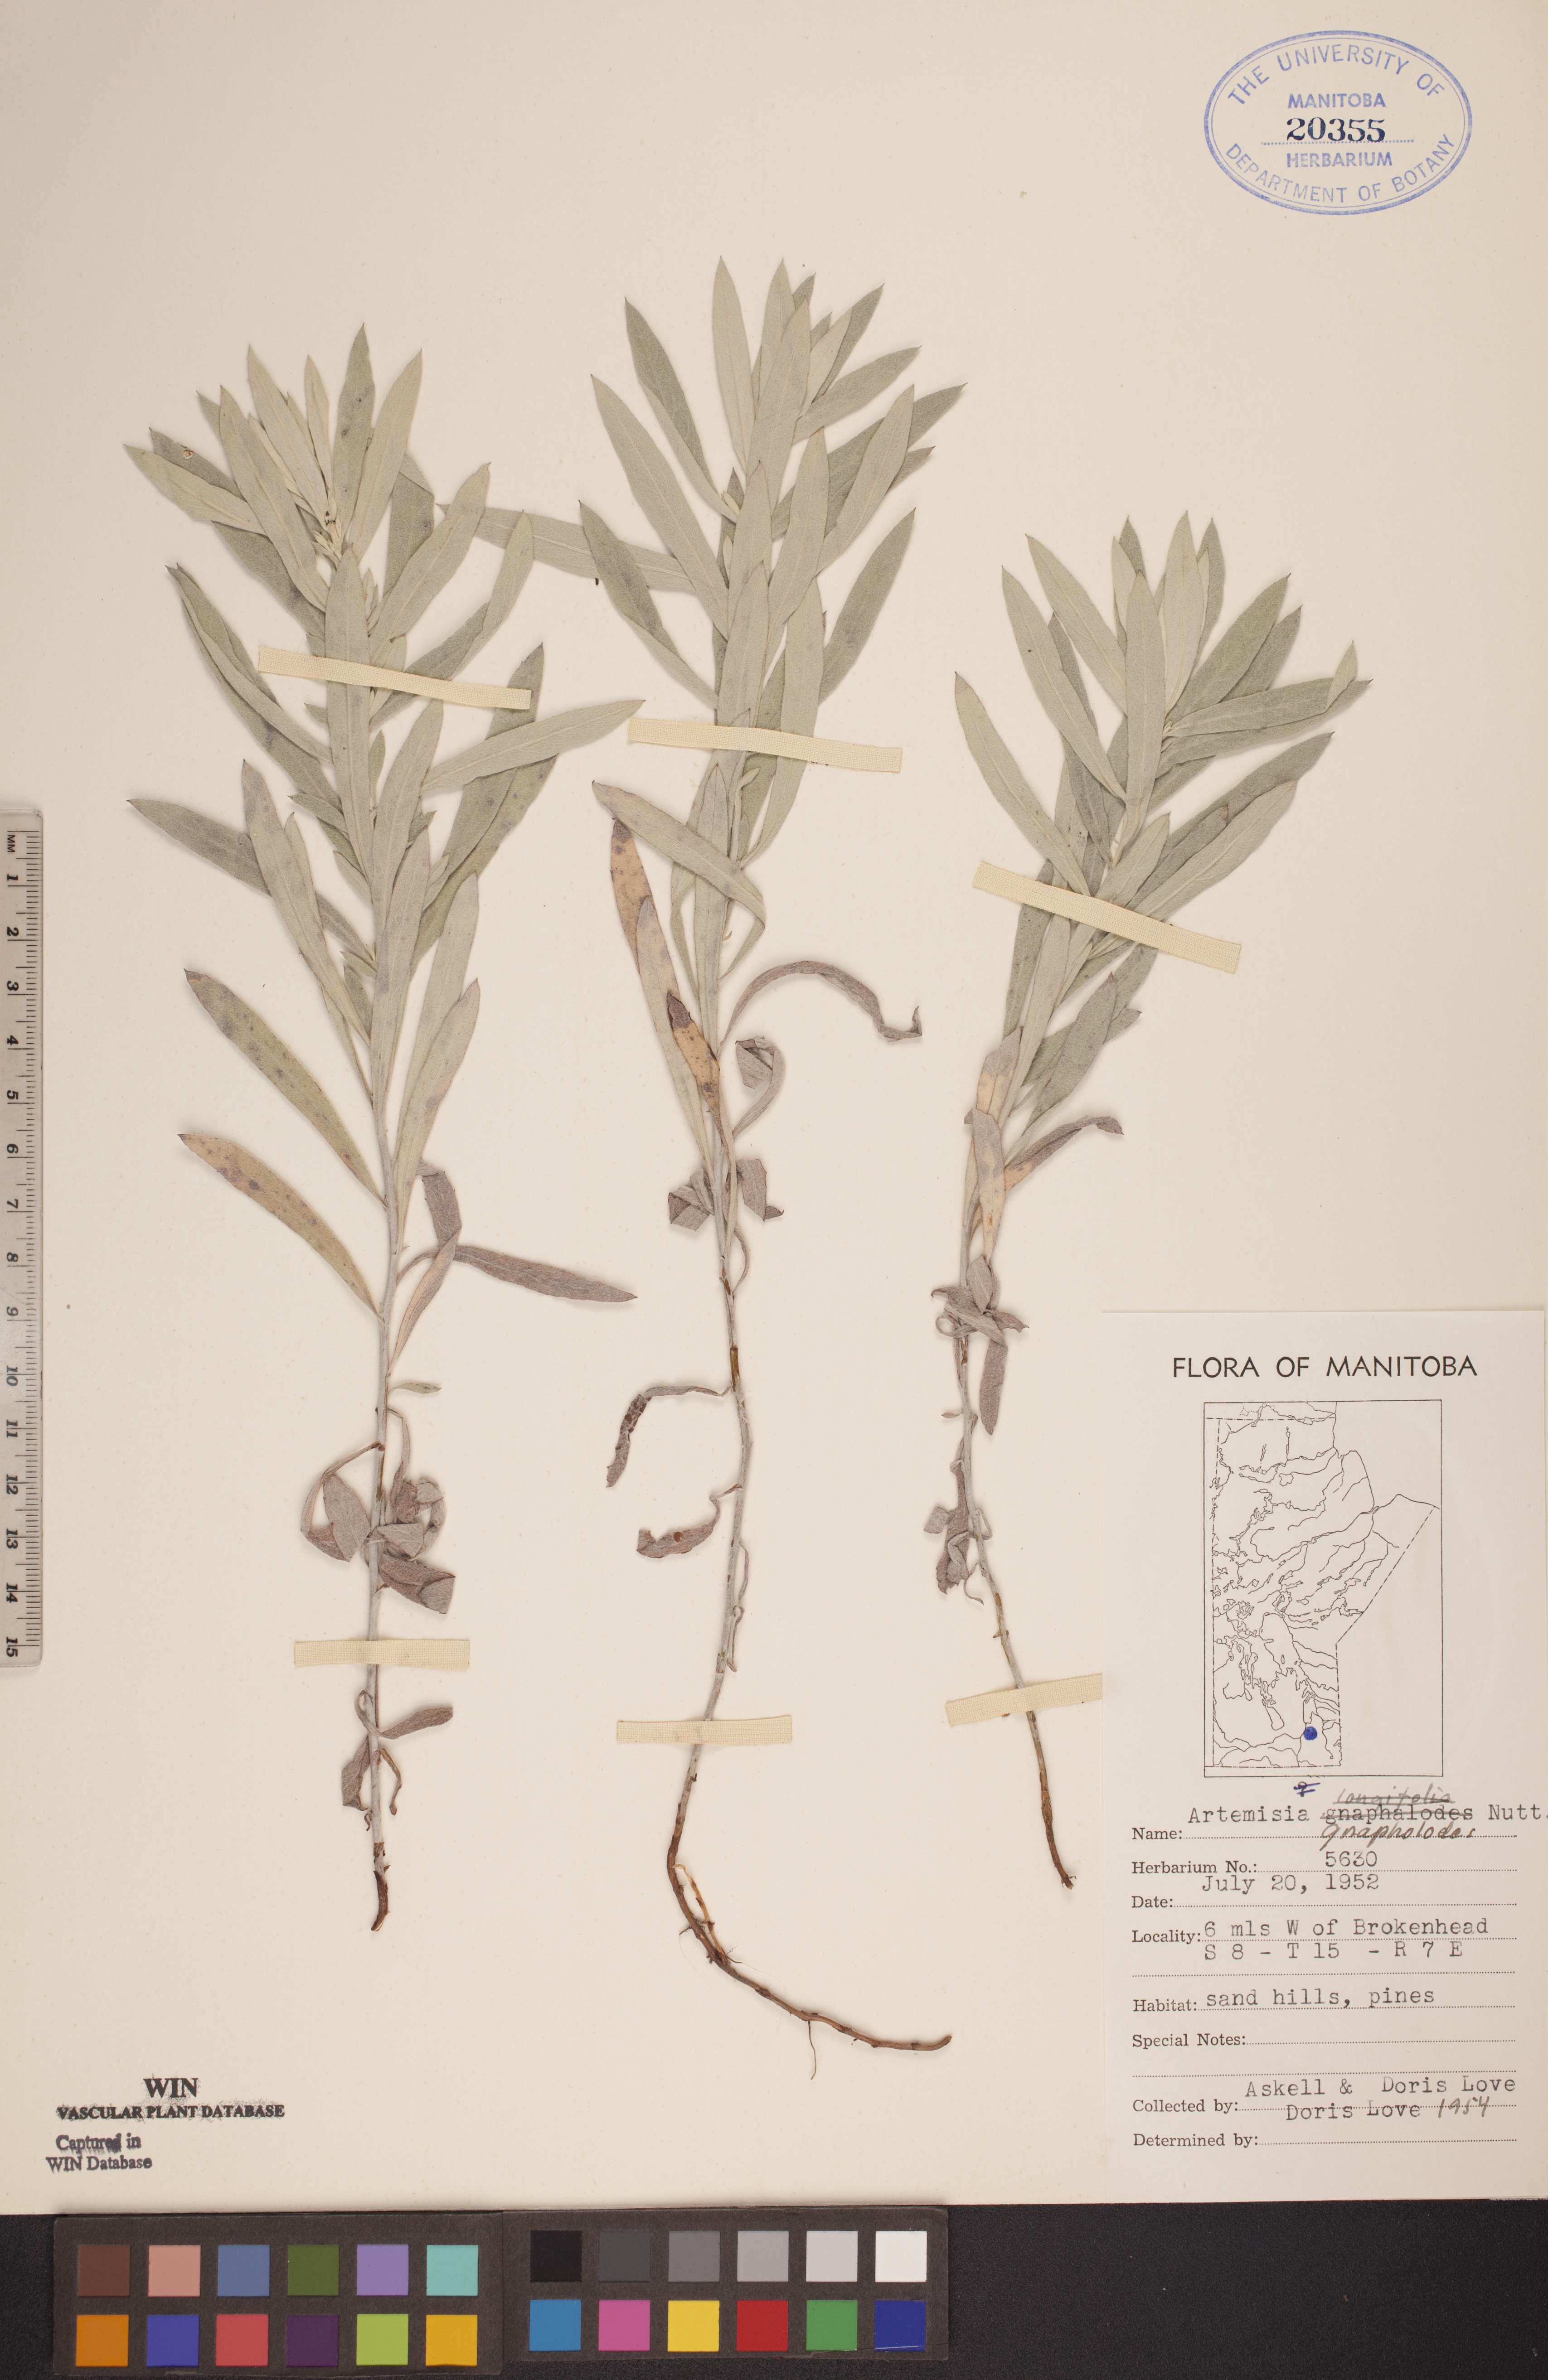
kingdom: Plantae
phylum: Tracheophyta
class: Magnoliopsida
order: Asterales
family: Asteraceae
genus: Artemisia
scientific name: Artemisia ludoviciana
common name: Western mugwort
